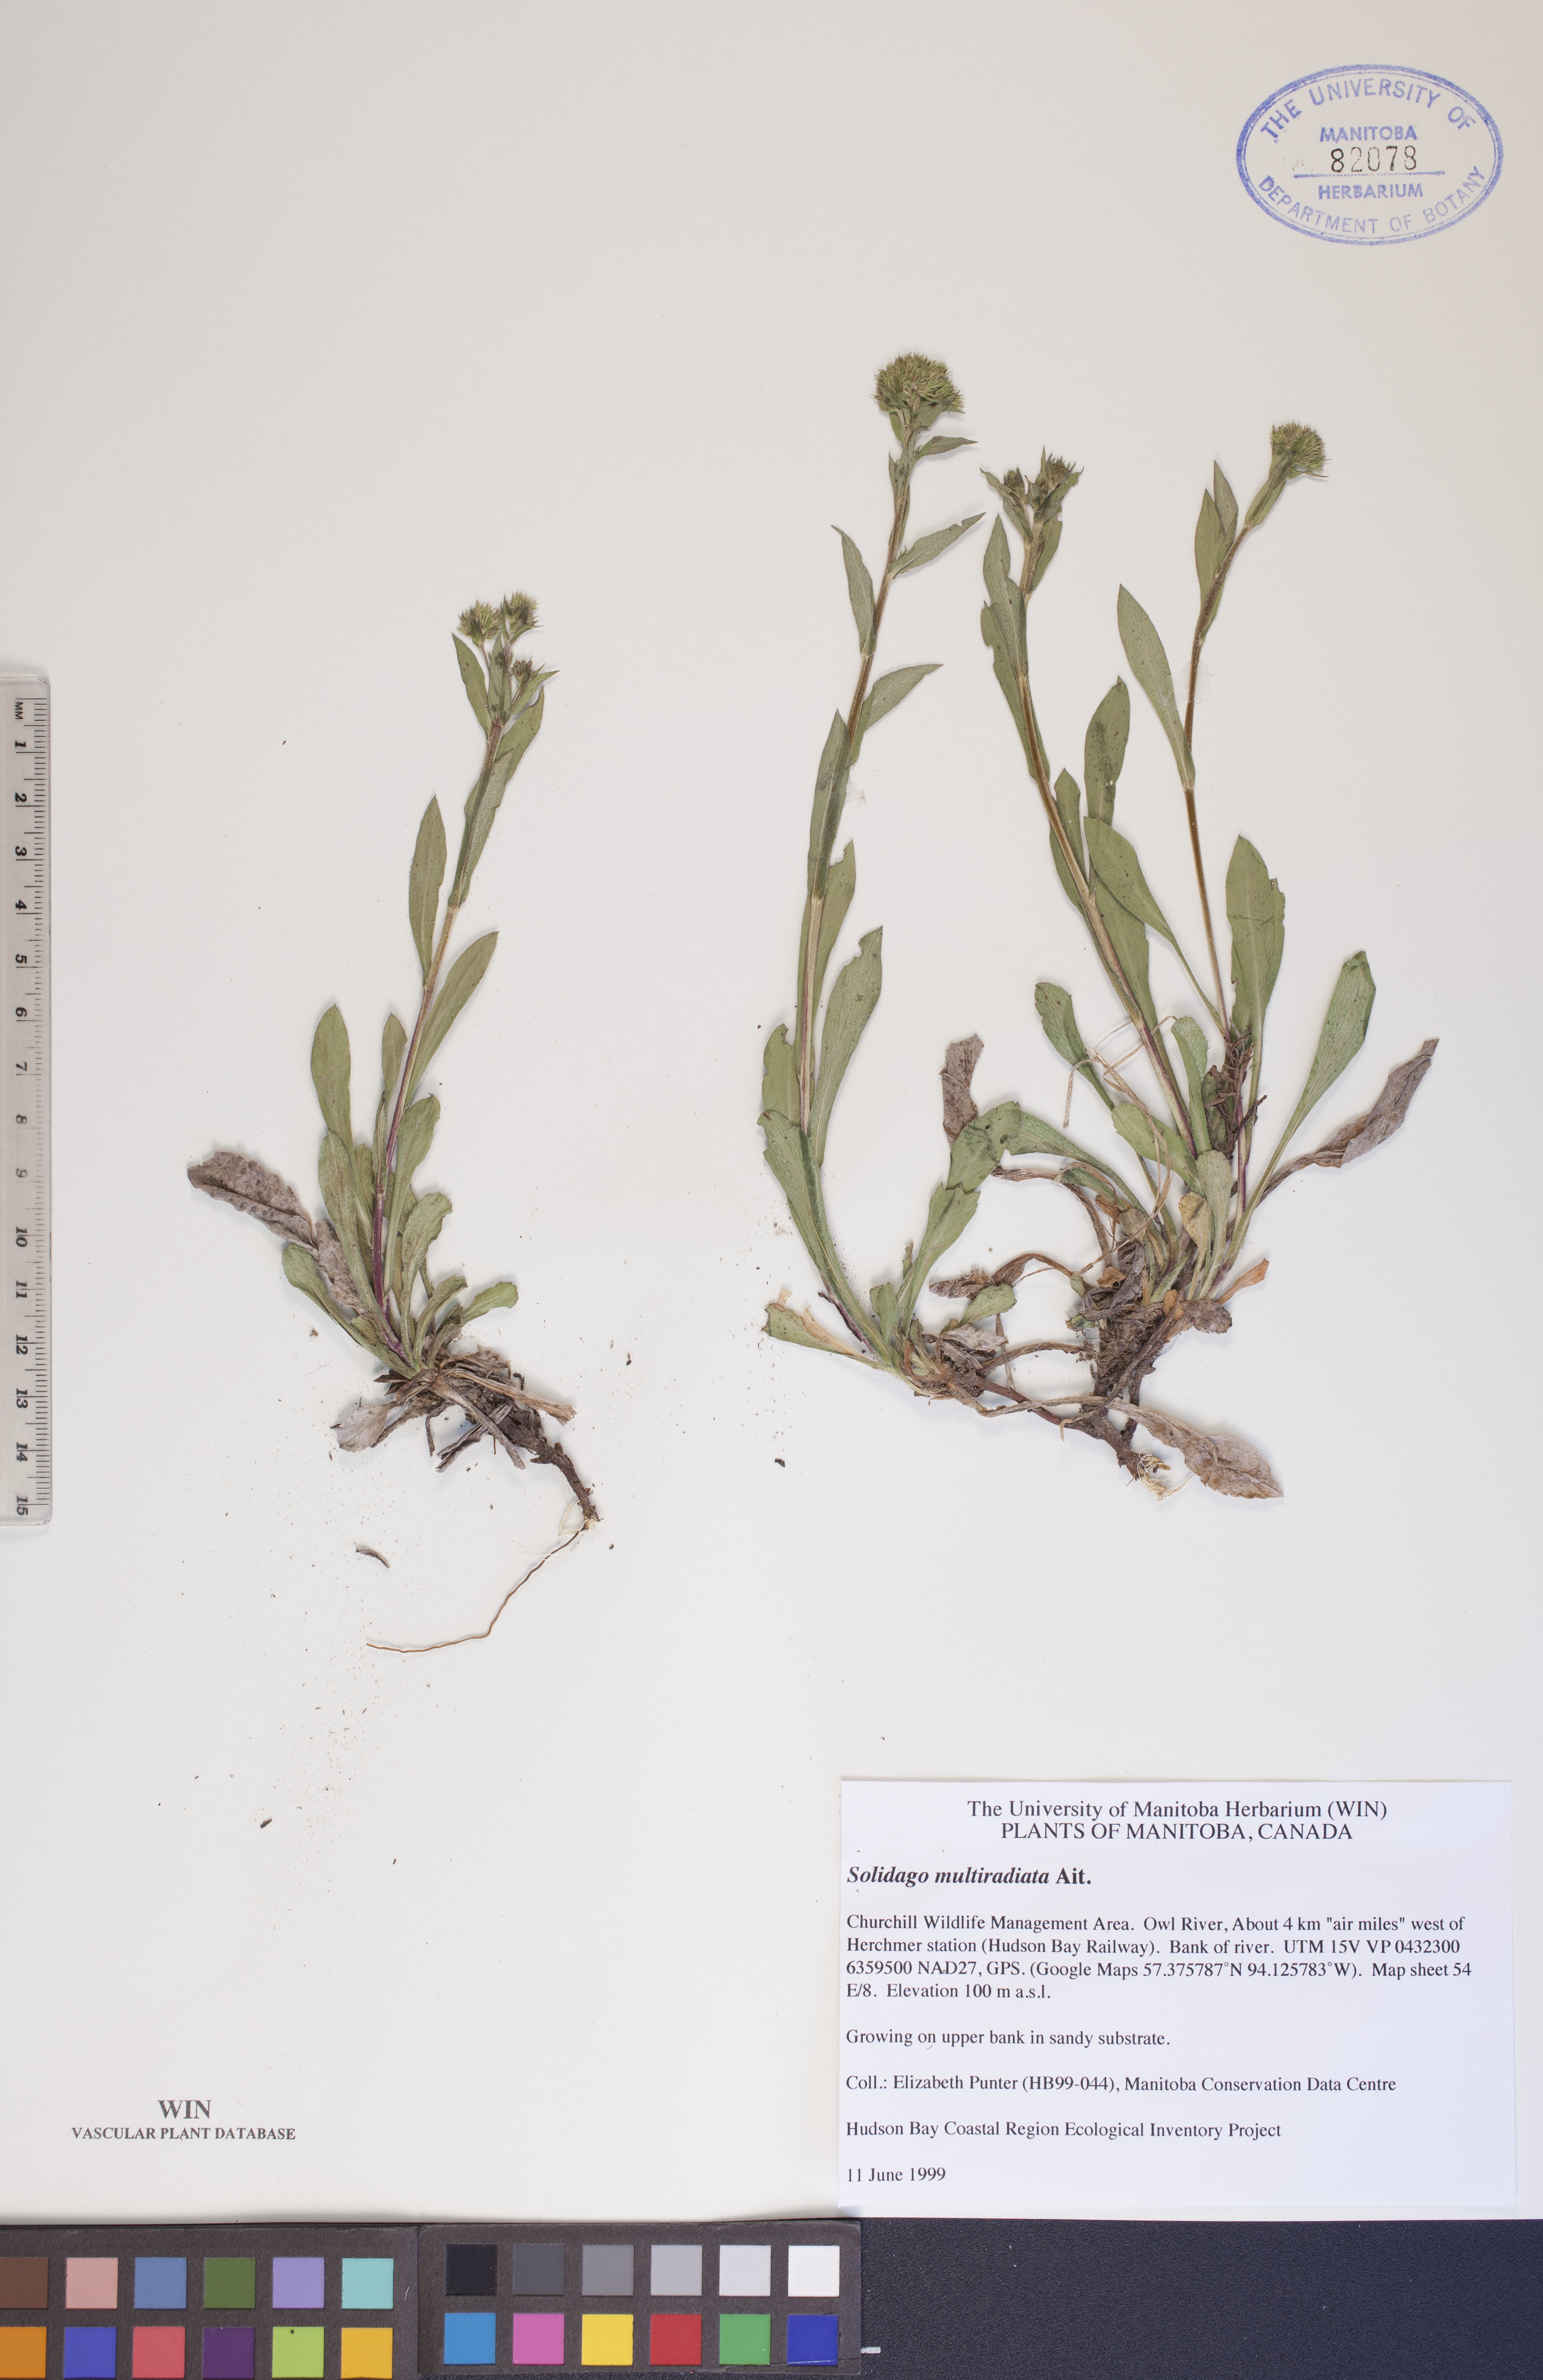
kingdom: Plantae
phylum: Tracheophyta
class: Magnoliopsida
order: Asterales
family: Asteraceae
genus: Solidago
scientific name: Solidago multiradiata
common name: Northern goldenrod
